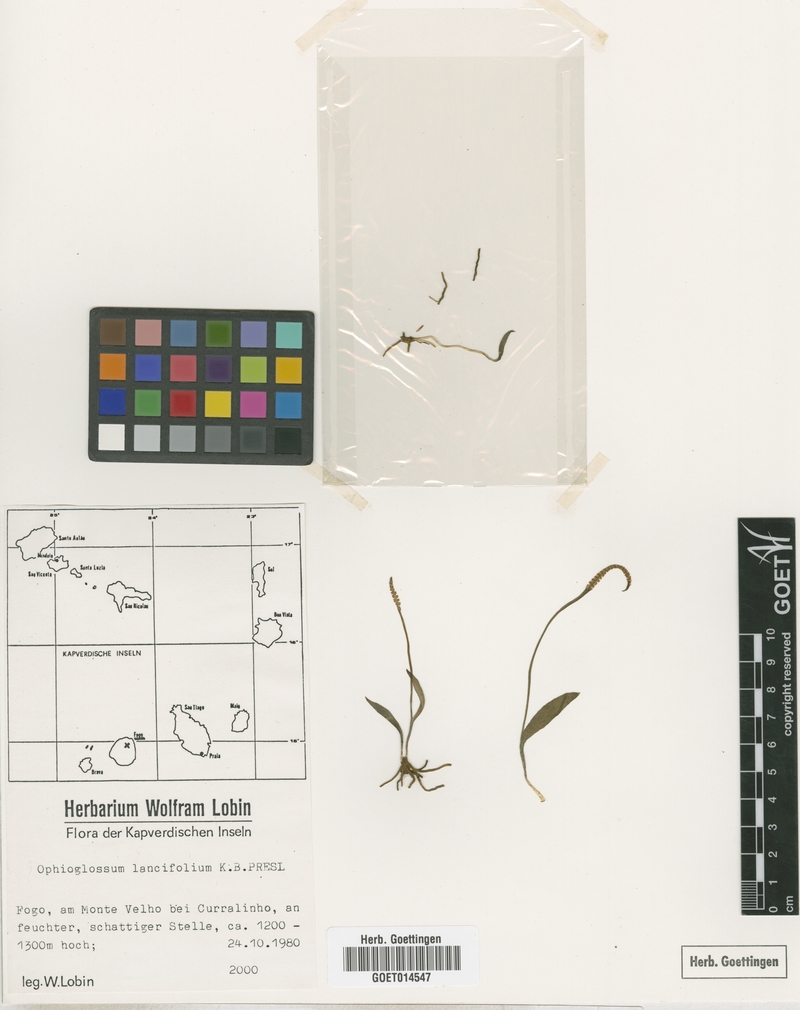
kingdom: Plantae
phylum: Tracheophyta
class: Polypodiopsida
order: Ophioglossales
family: Ophioglossaceae
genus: Ophioglossum
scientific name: Ophioglossum lancifolium
